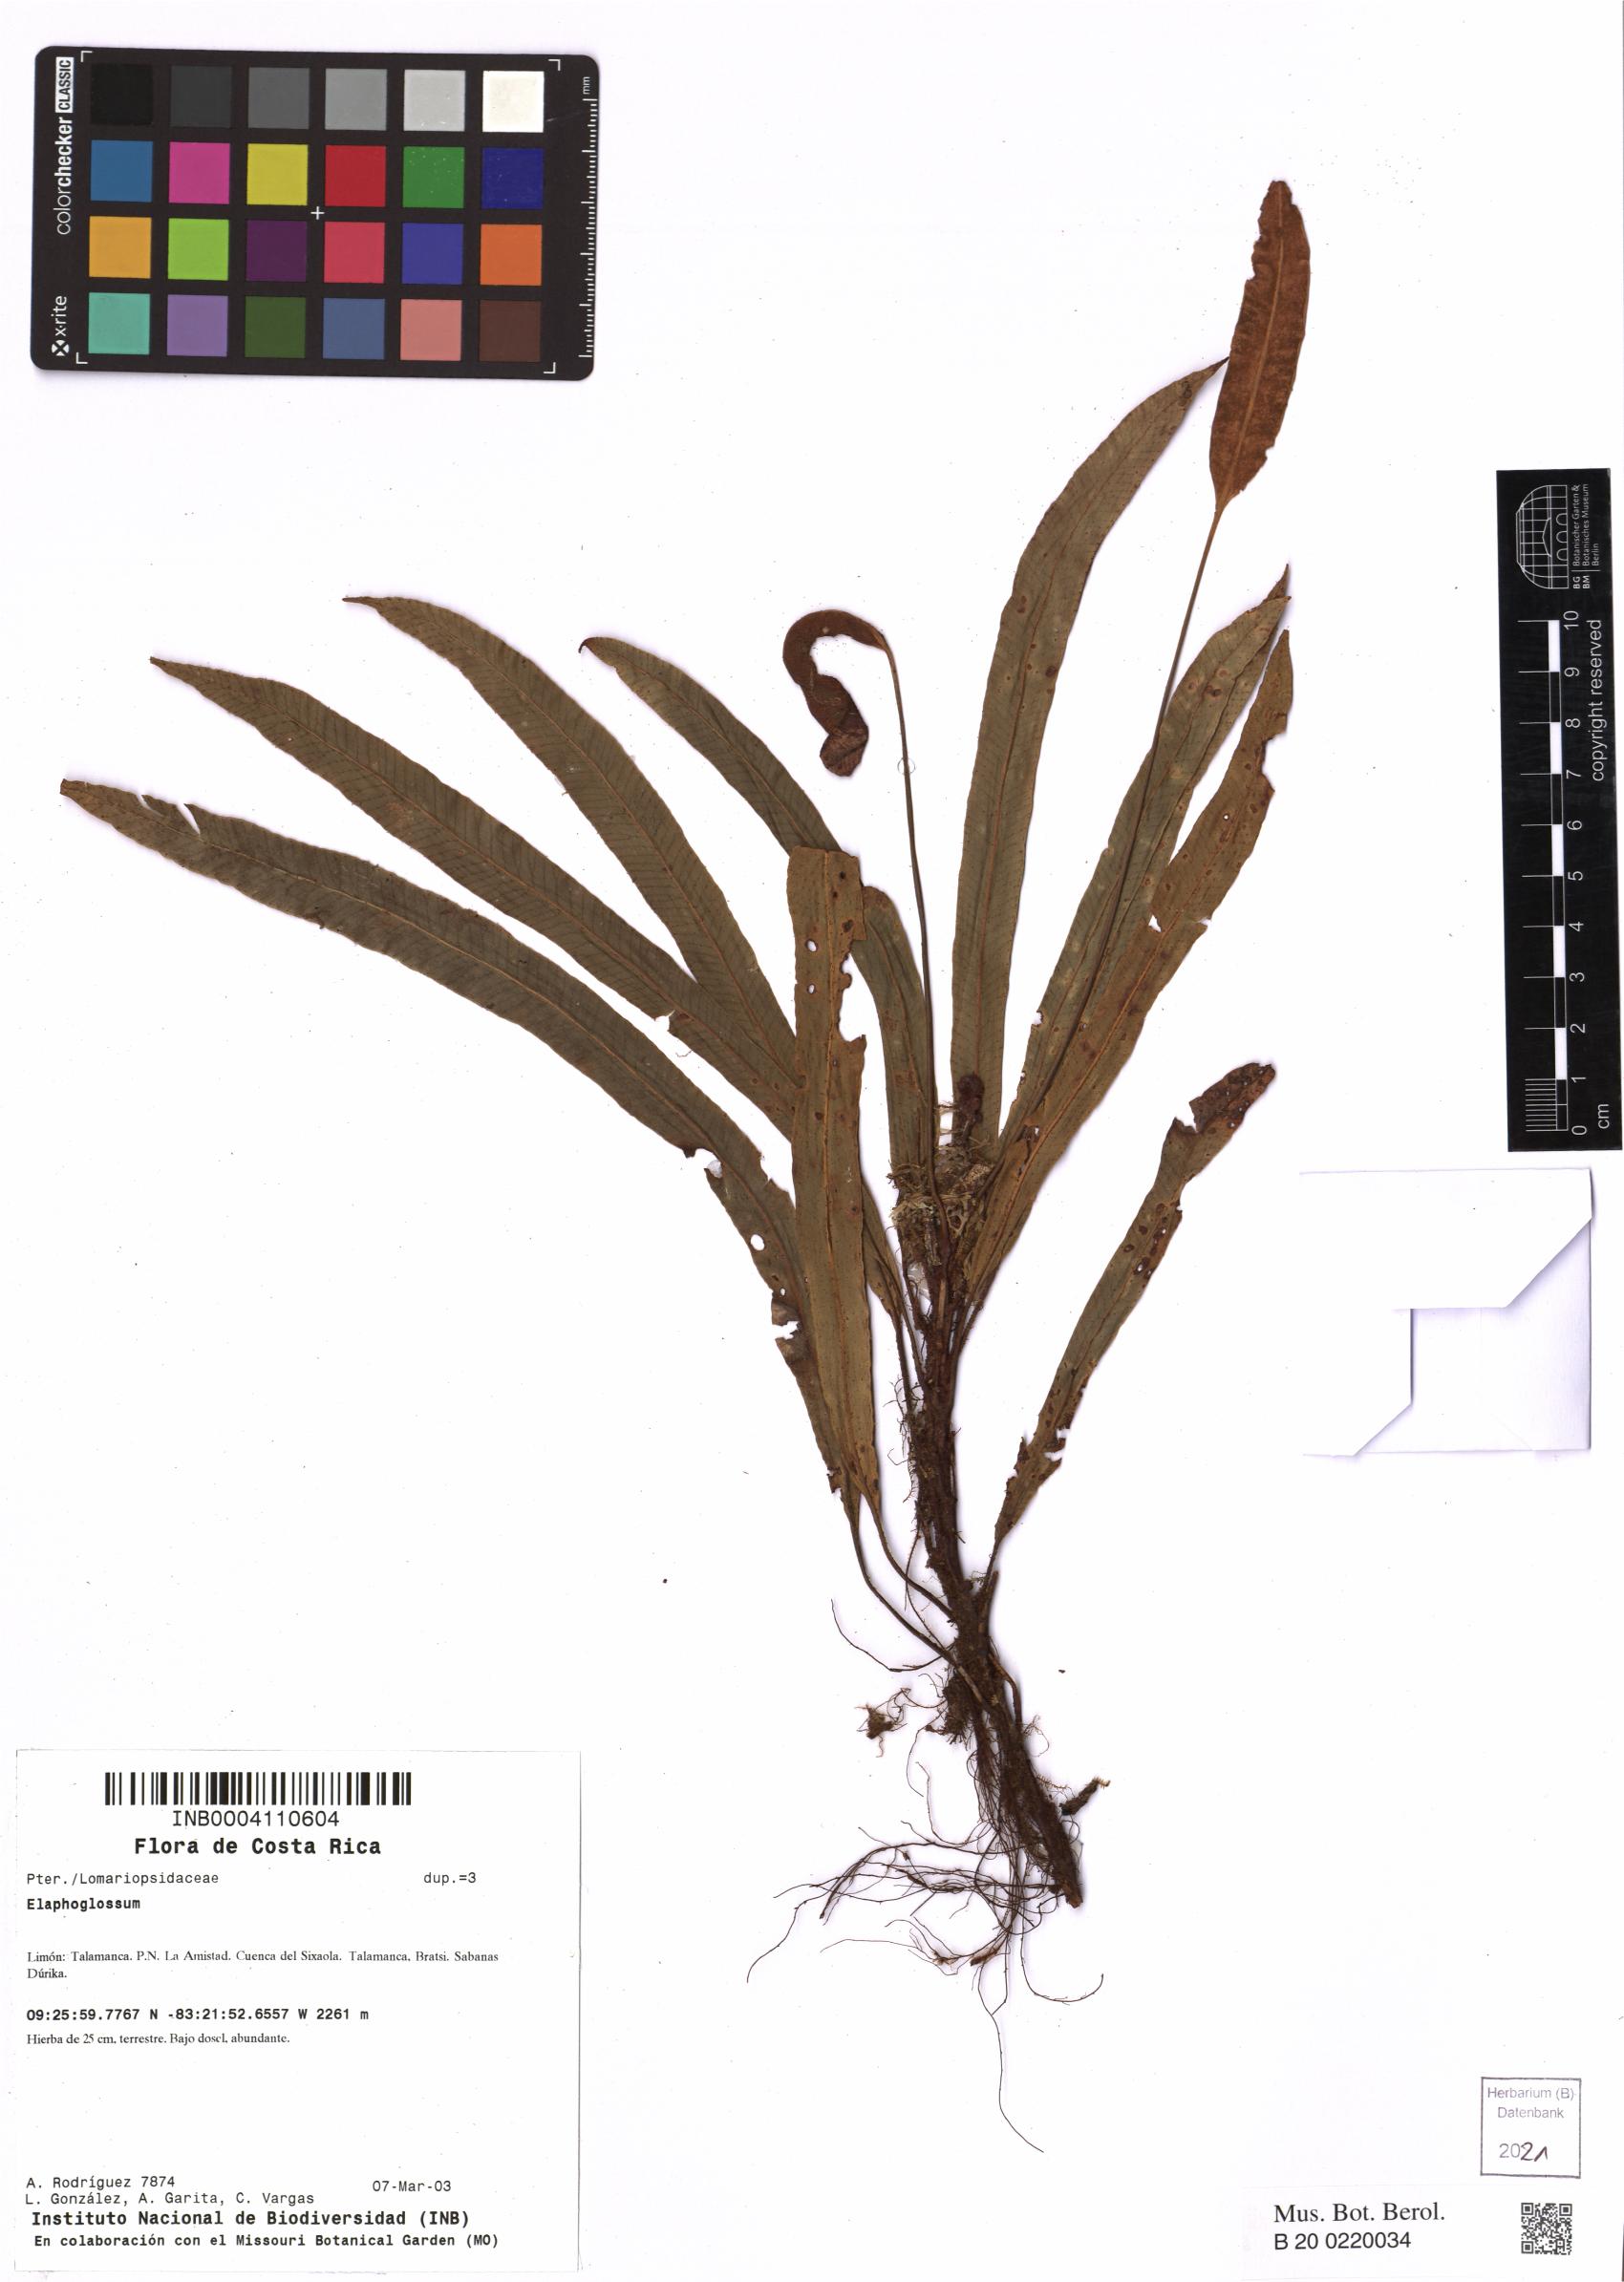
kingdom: Plantae
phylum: Tracheophyta
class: Polypodiopsida
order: Polypodiales
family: Dryopteridaceae
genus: Elaphoglossum
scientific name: Elaphoglossum
